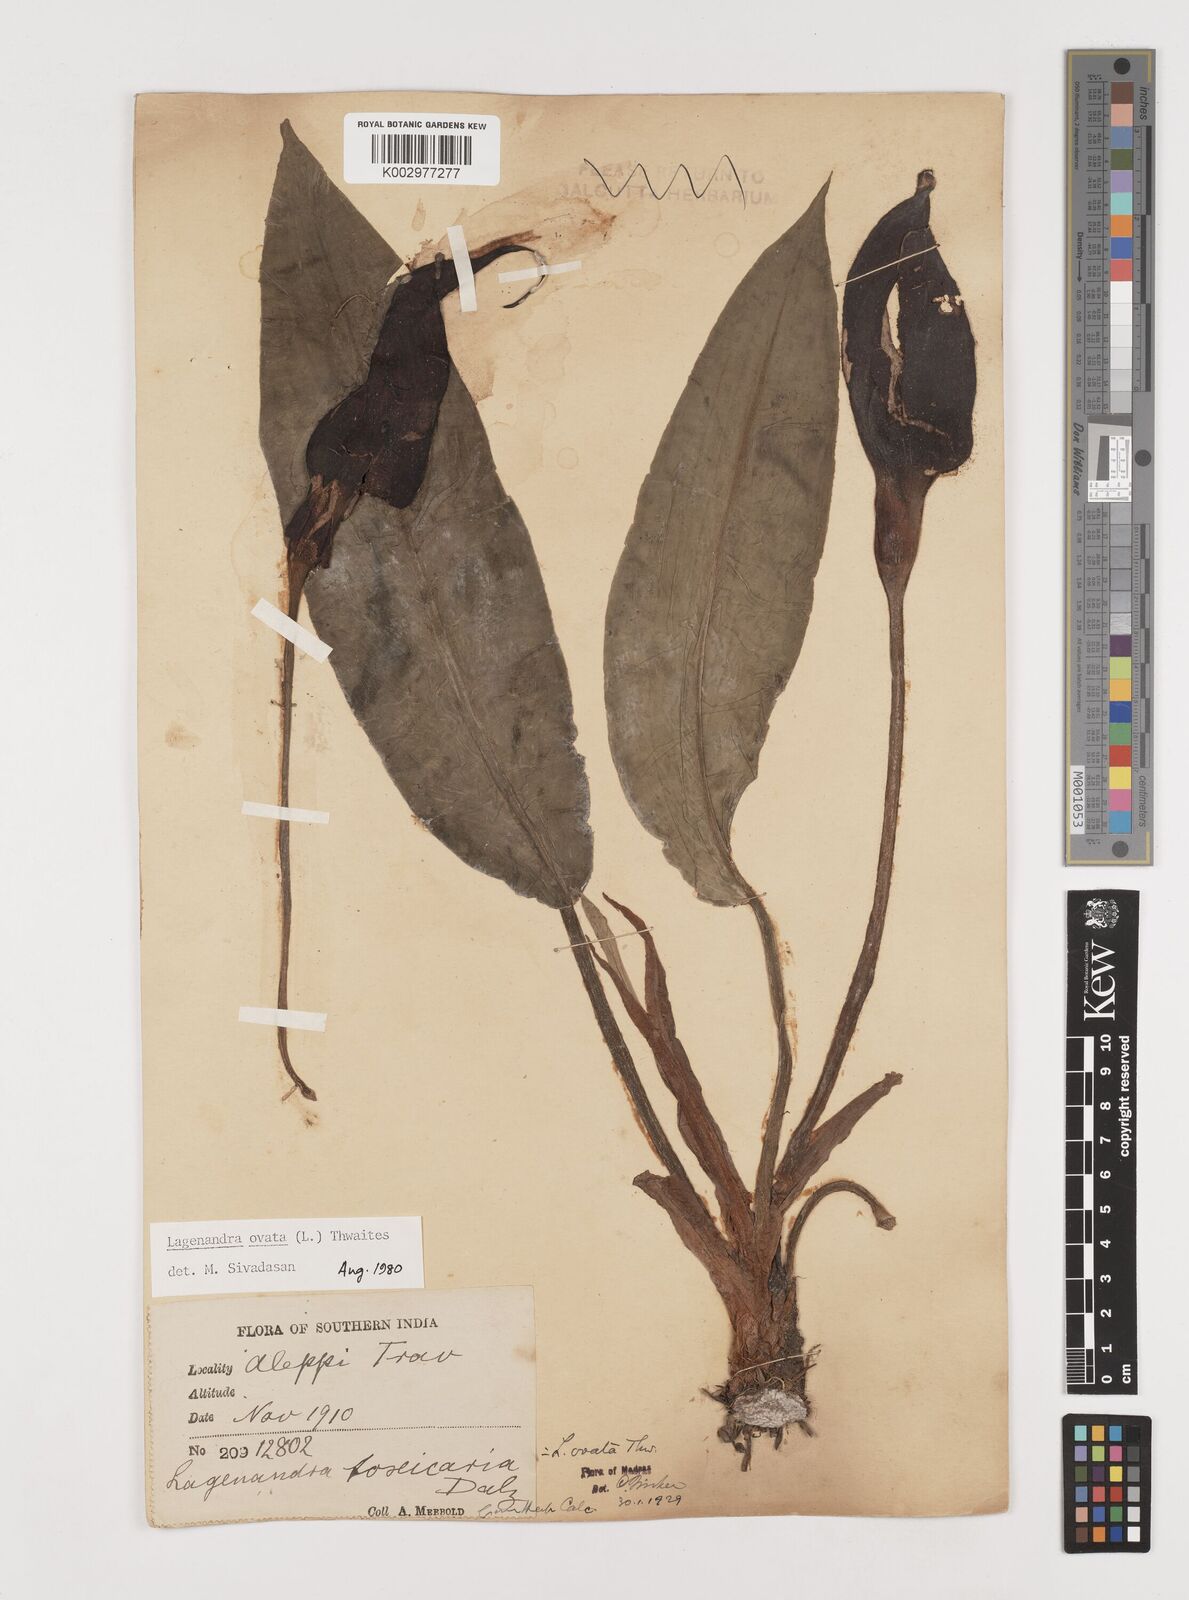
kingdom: Plantae
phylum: Tracheophyta
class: Liliopsida
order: Alismatales
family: Araceae
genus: Lagenandra
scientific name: Lagenandra ovata
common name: Malayan sword
